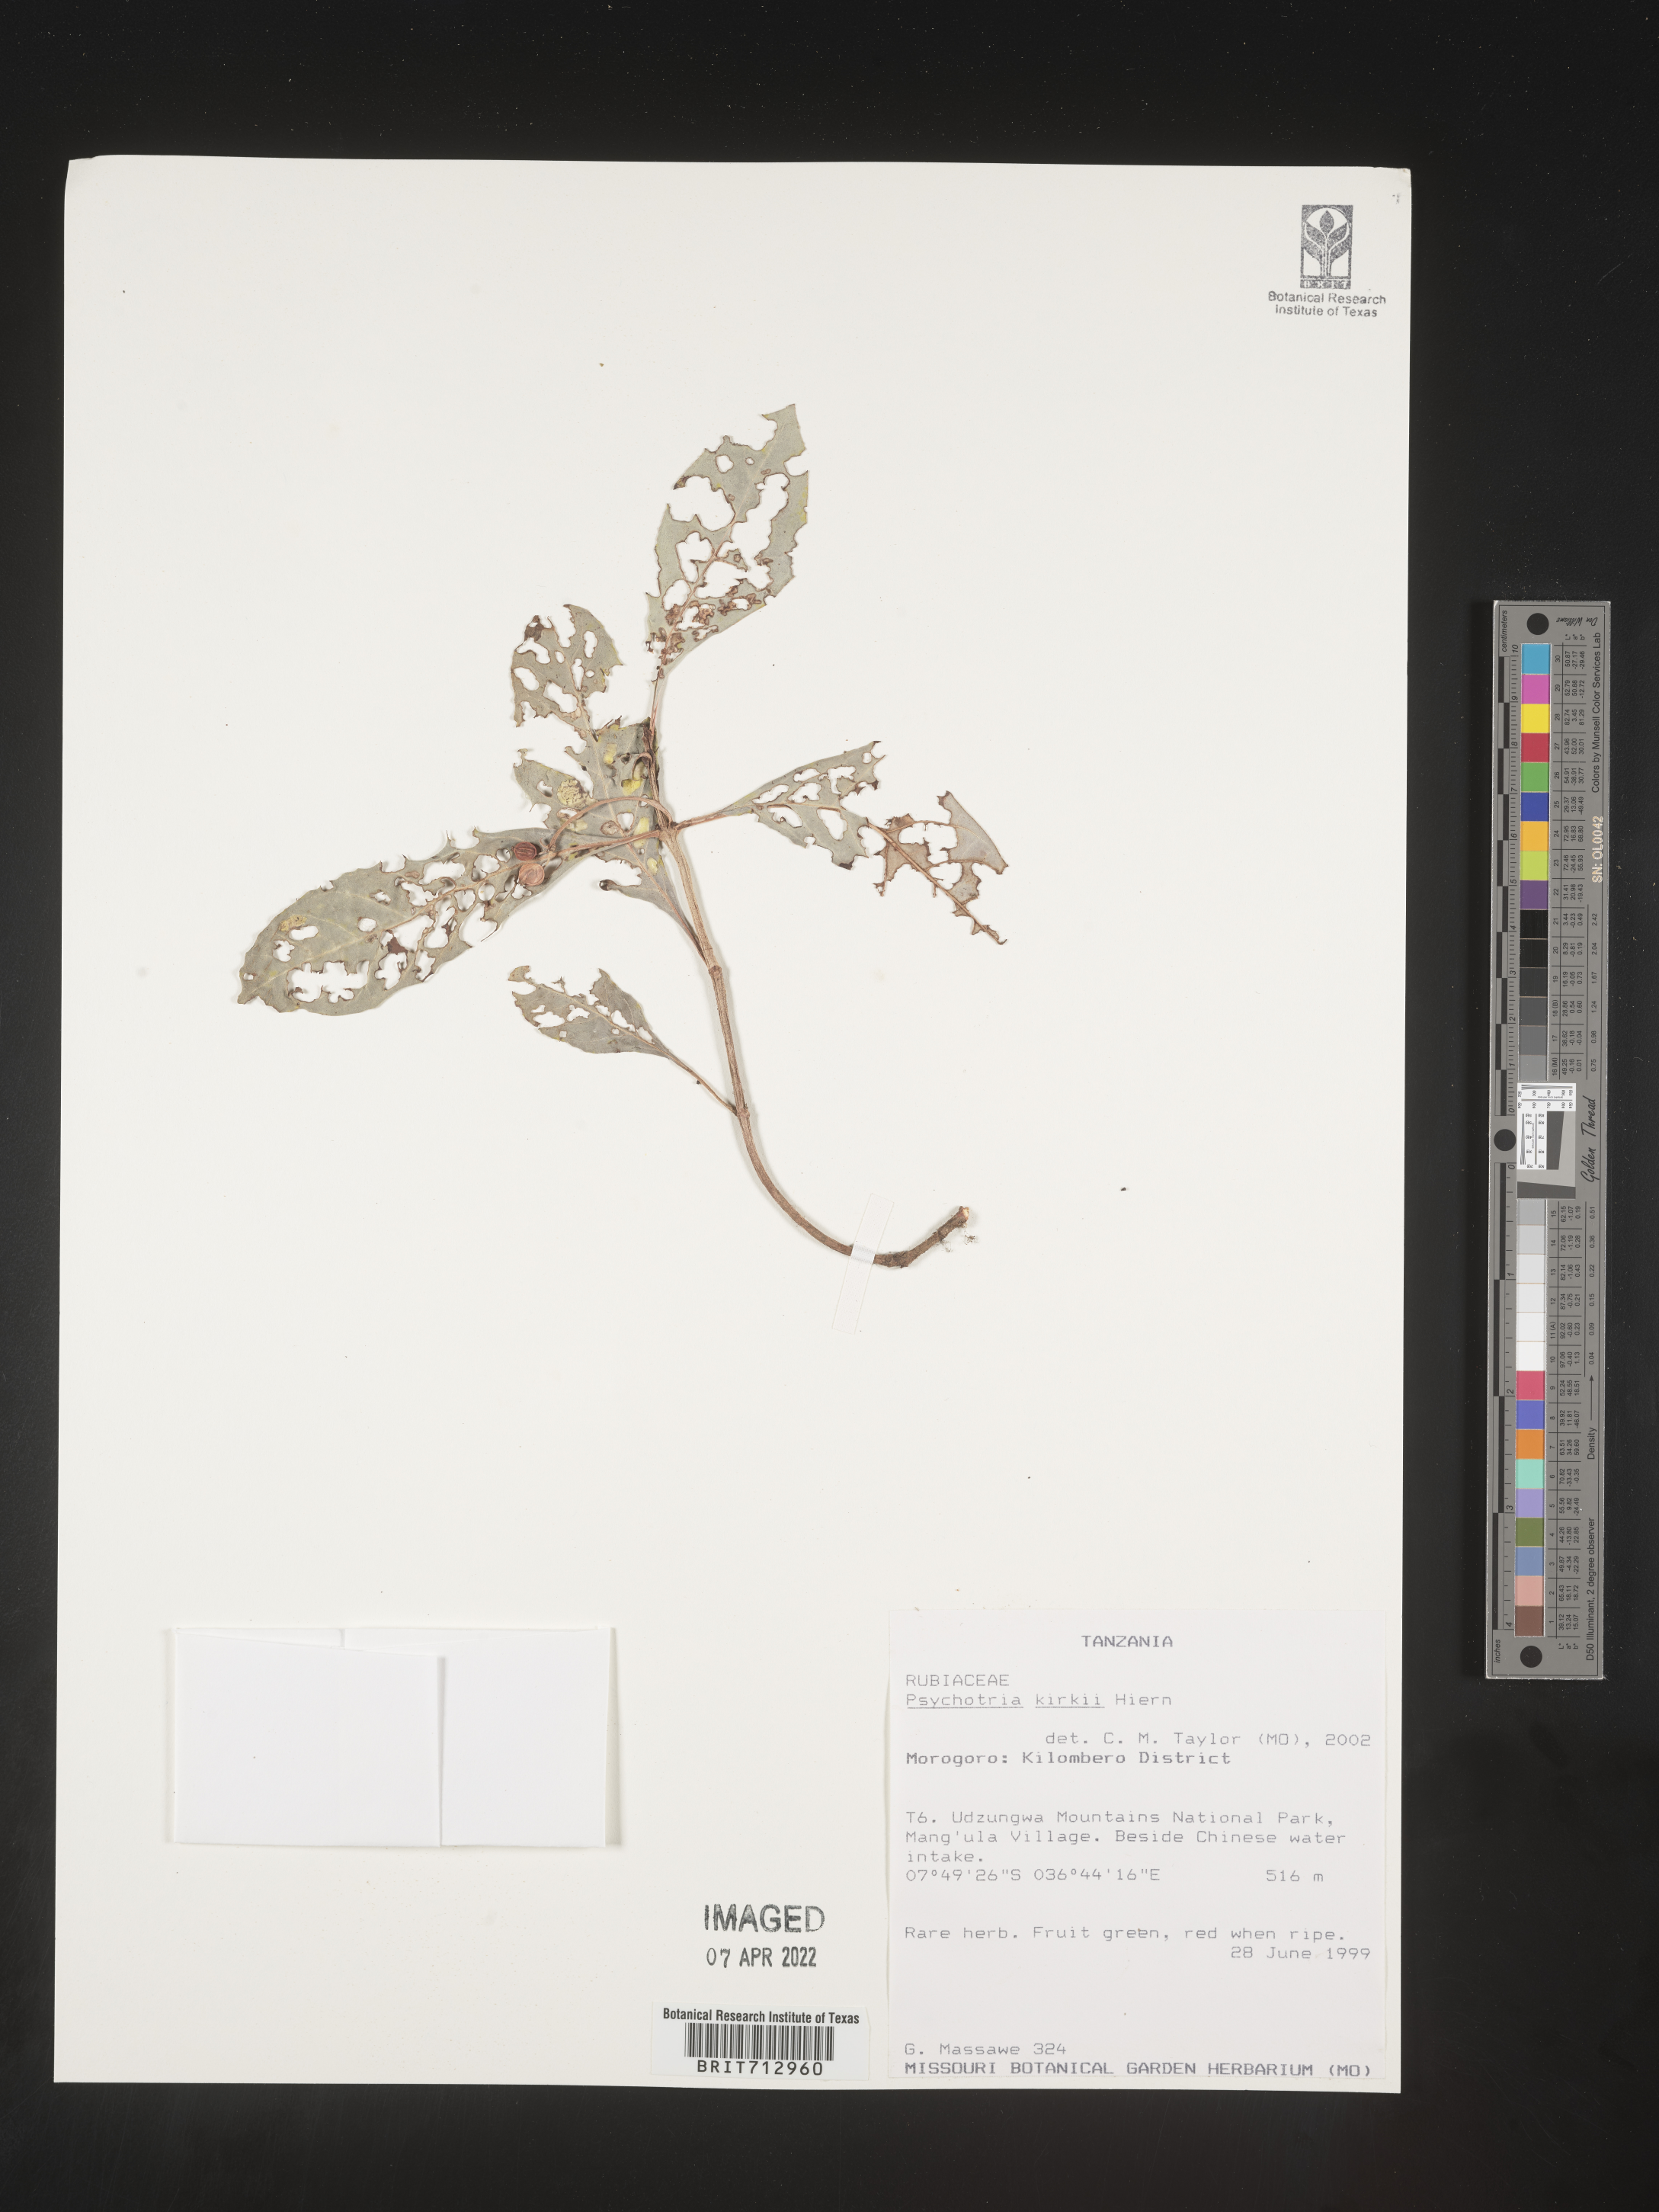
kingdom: Plantae
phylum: Tracheophyta
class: Magnoliopsida
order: Gentianales
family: Rubiaceae
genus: Psychotria
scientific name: Psychotria punctata
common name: Dotted wild coffee
